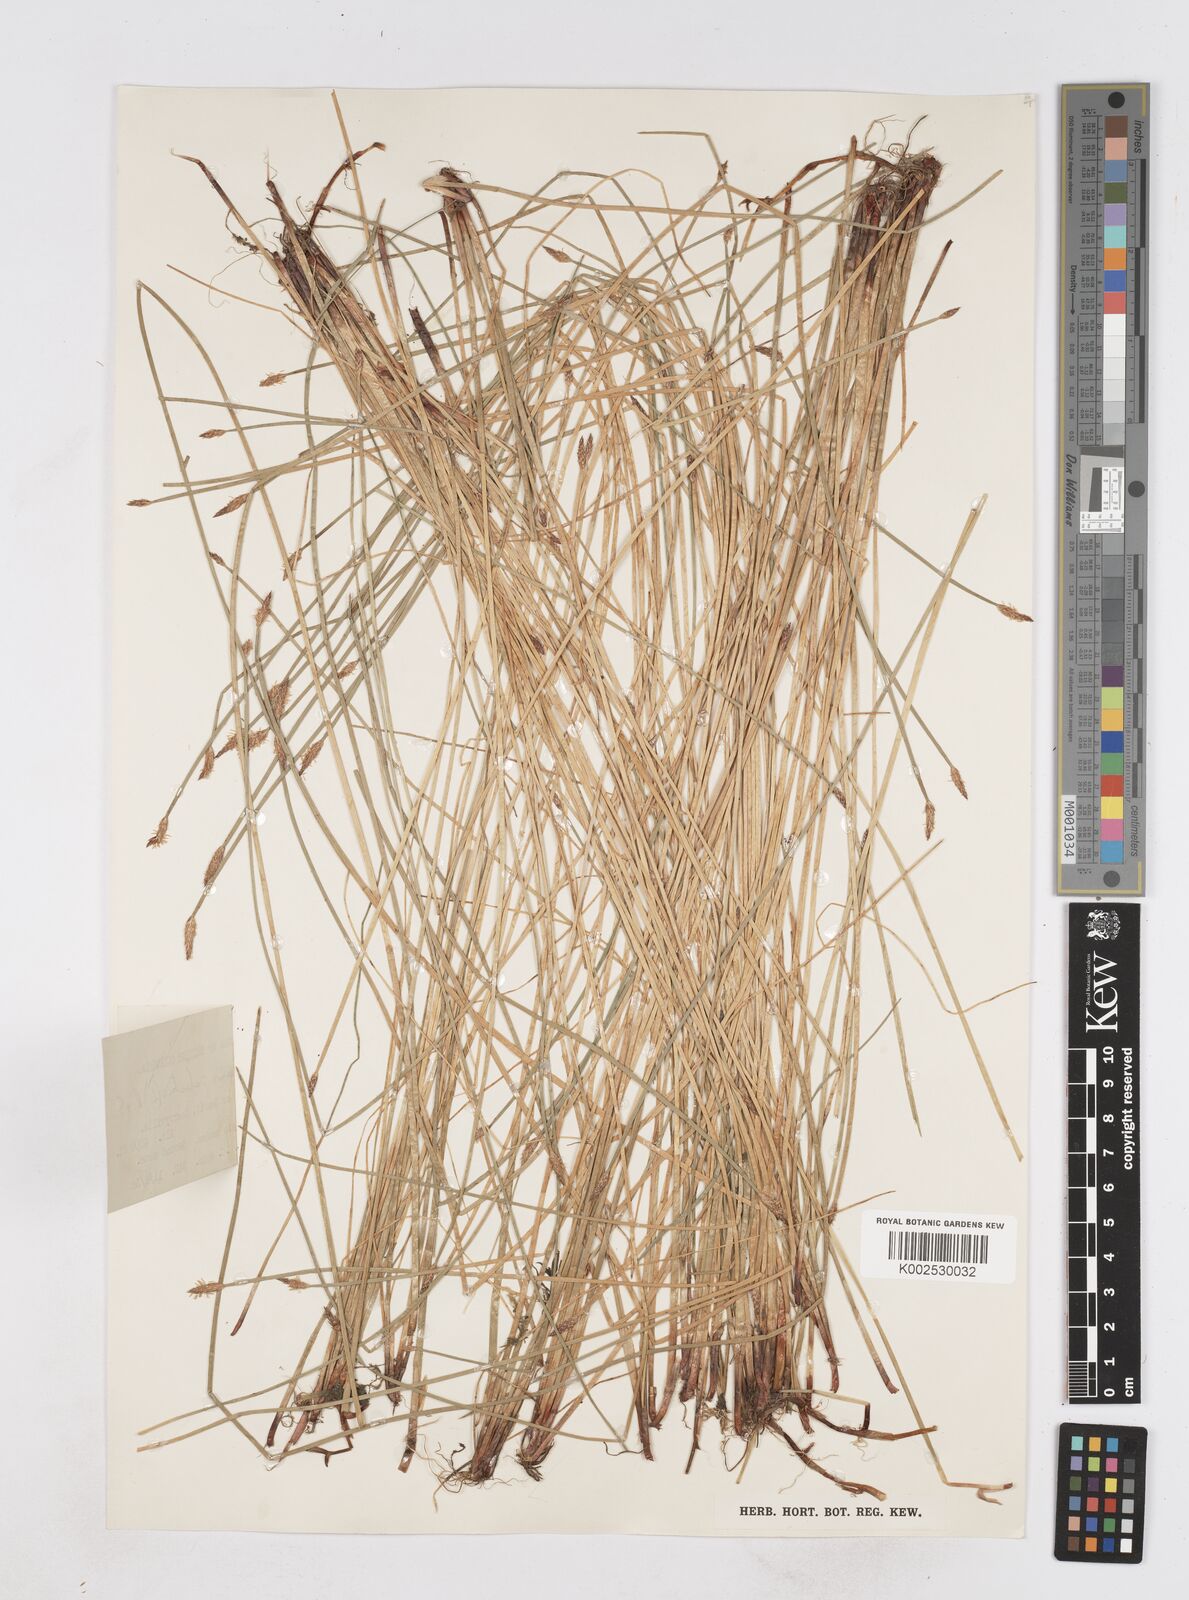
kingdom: Plantae
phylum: Tracheophyta
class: Liliopsida
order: Poales
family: Cyperaceae
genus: Eleocharis
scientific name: Eleocharis palustris
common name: Common spike-rush
